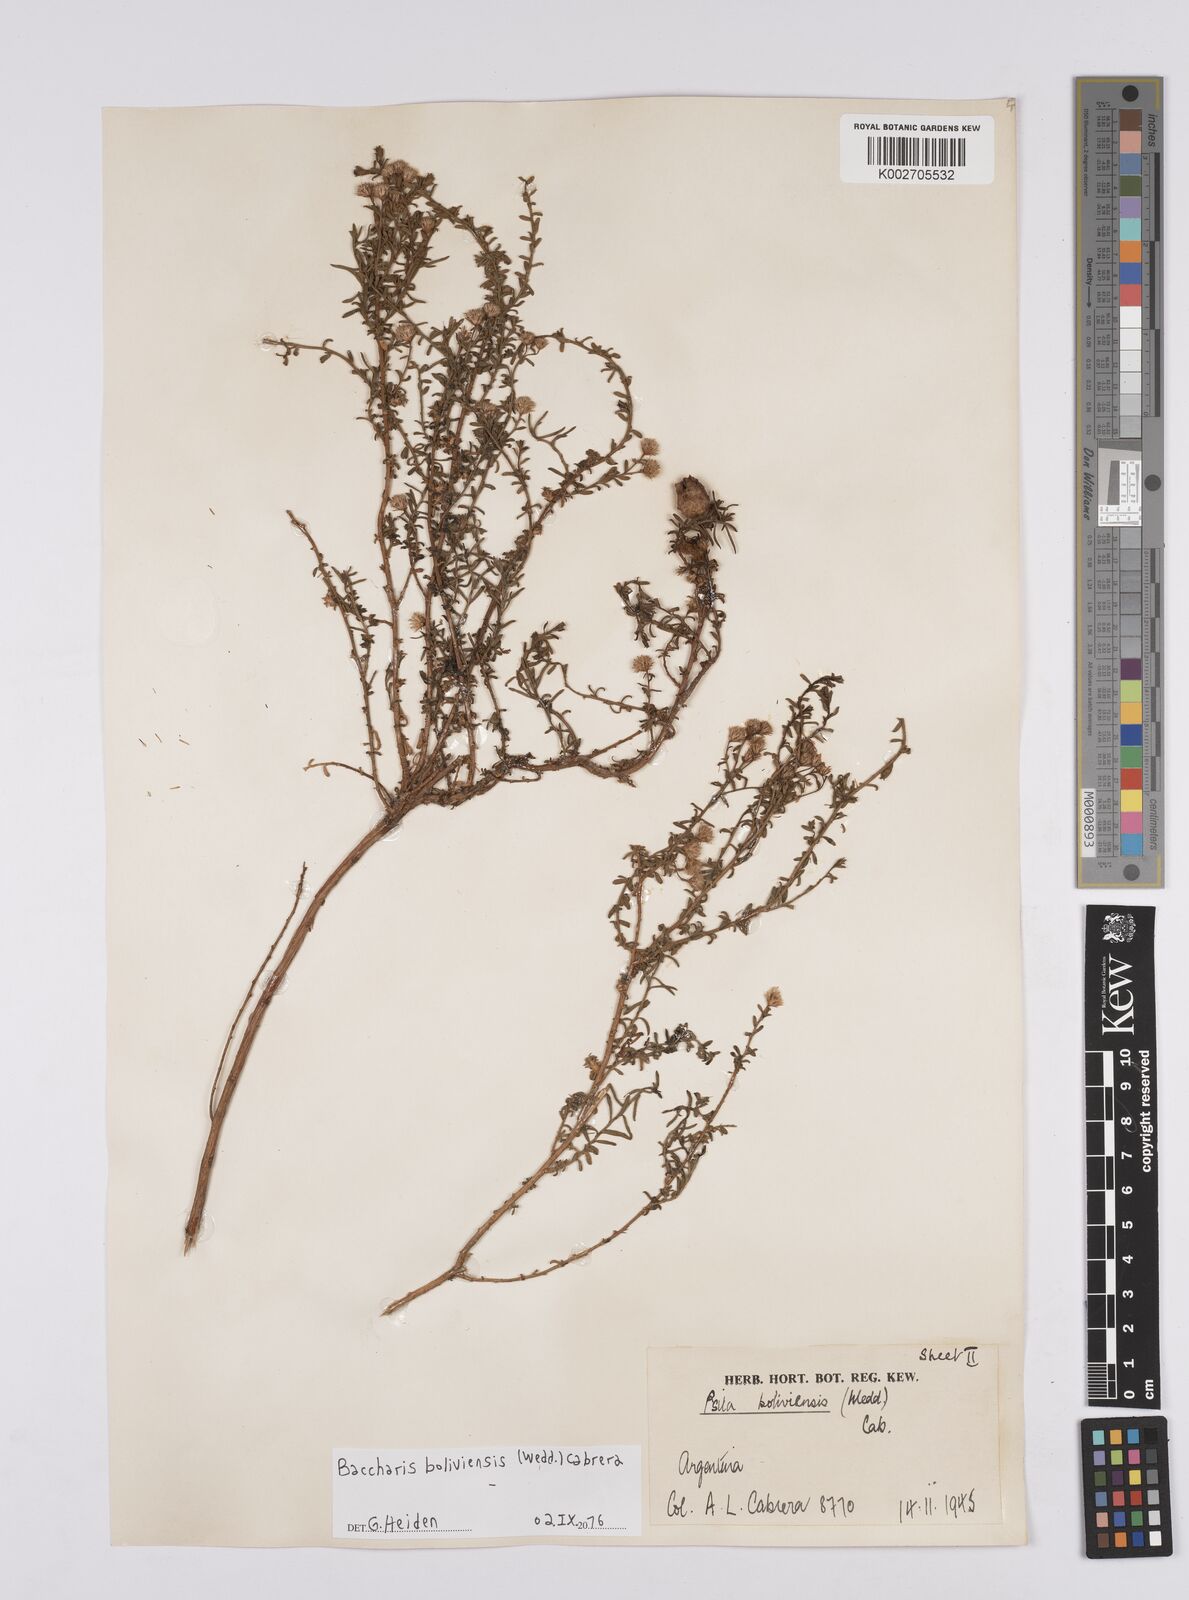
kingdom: Plantae
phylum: Tracheophyta
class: Magnoliopsida
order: Asterales
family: Asteraceae
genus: Baccharis
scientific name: Baccharis bolivensis
